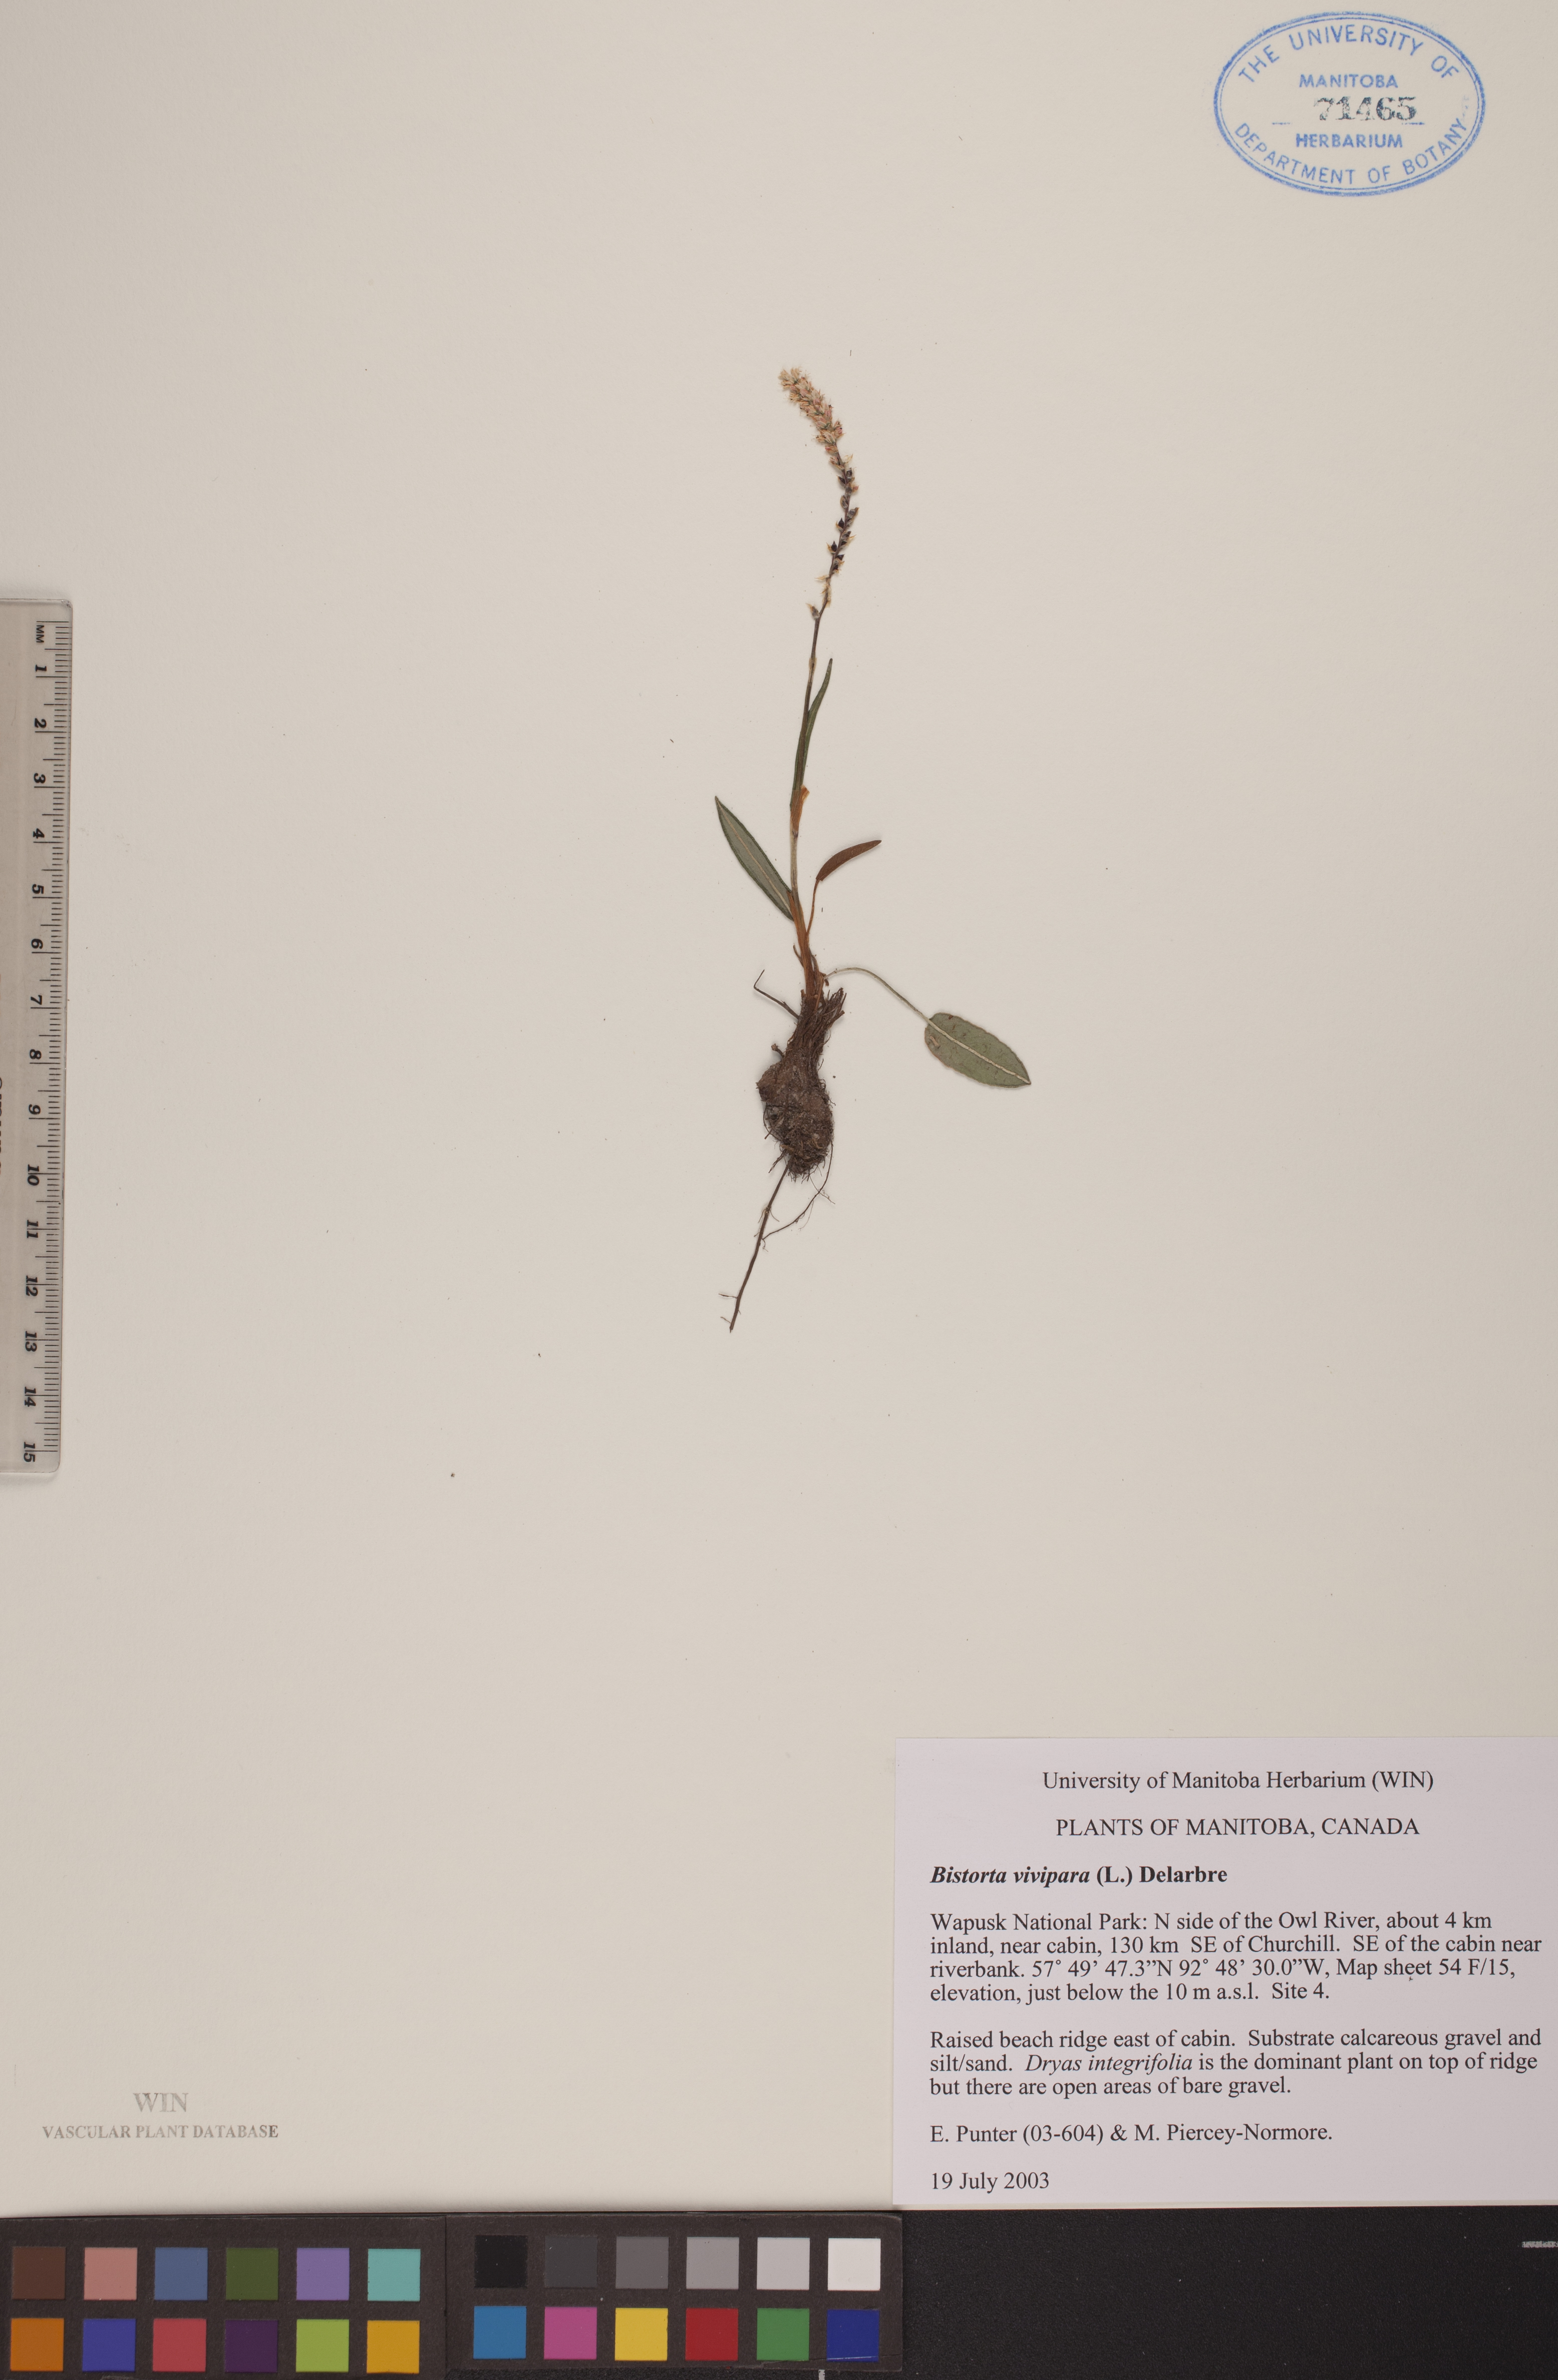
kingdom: Plantae
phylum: Tracheophyta
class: Magnoliopsida
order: Caryophyllales
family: Polygonaceae
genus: Bistorta
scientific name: Bistorta vivipara
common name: Alpine bistort
